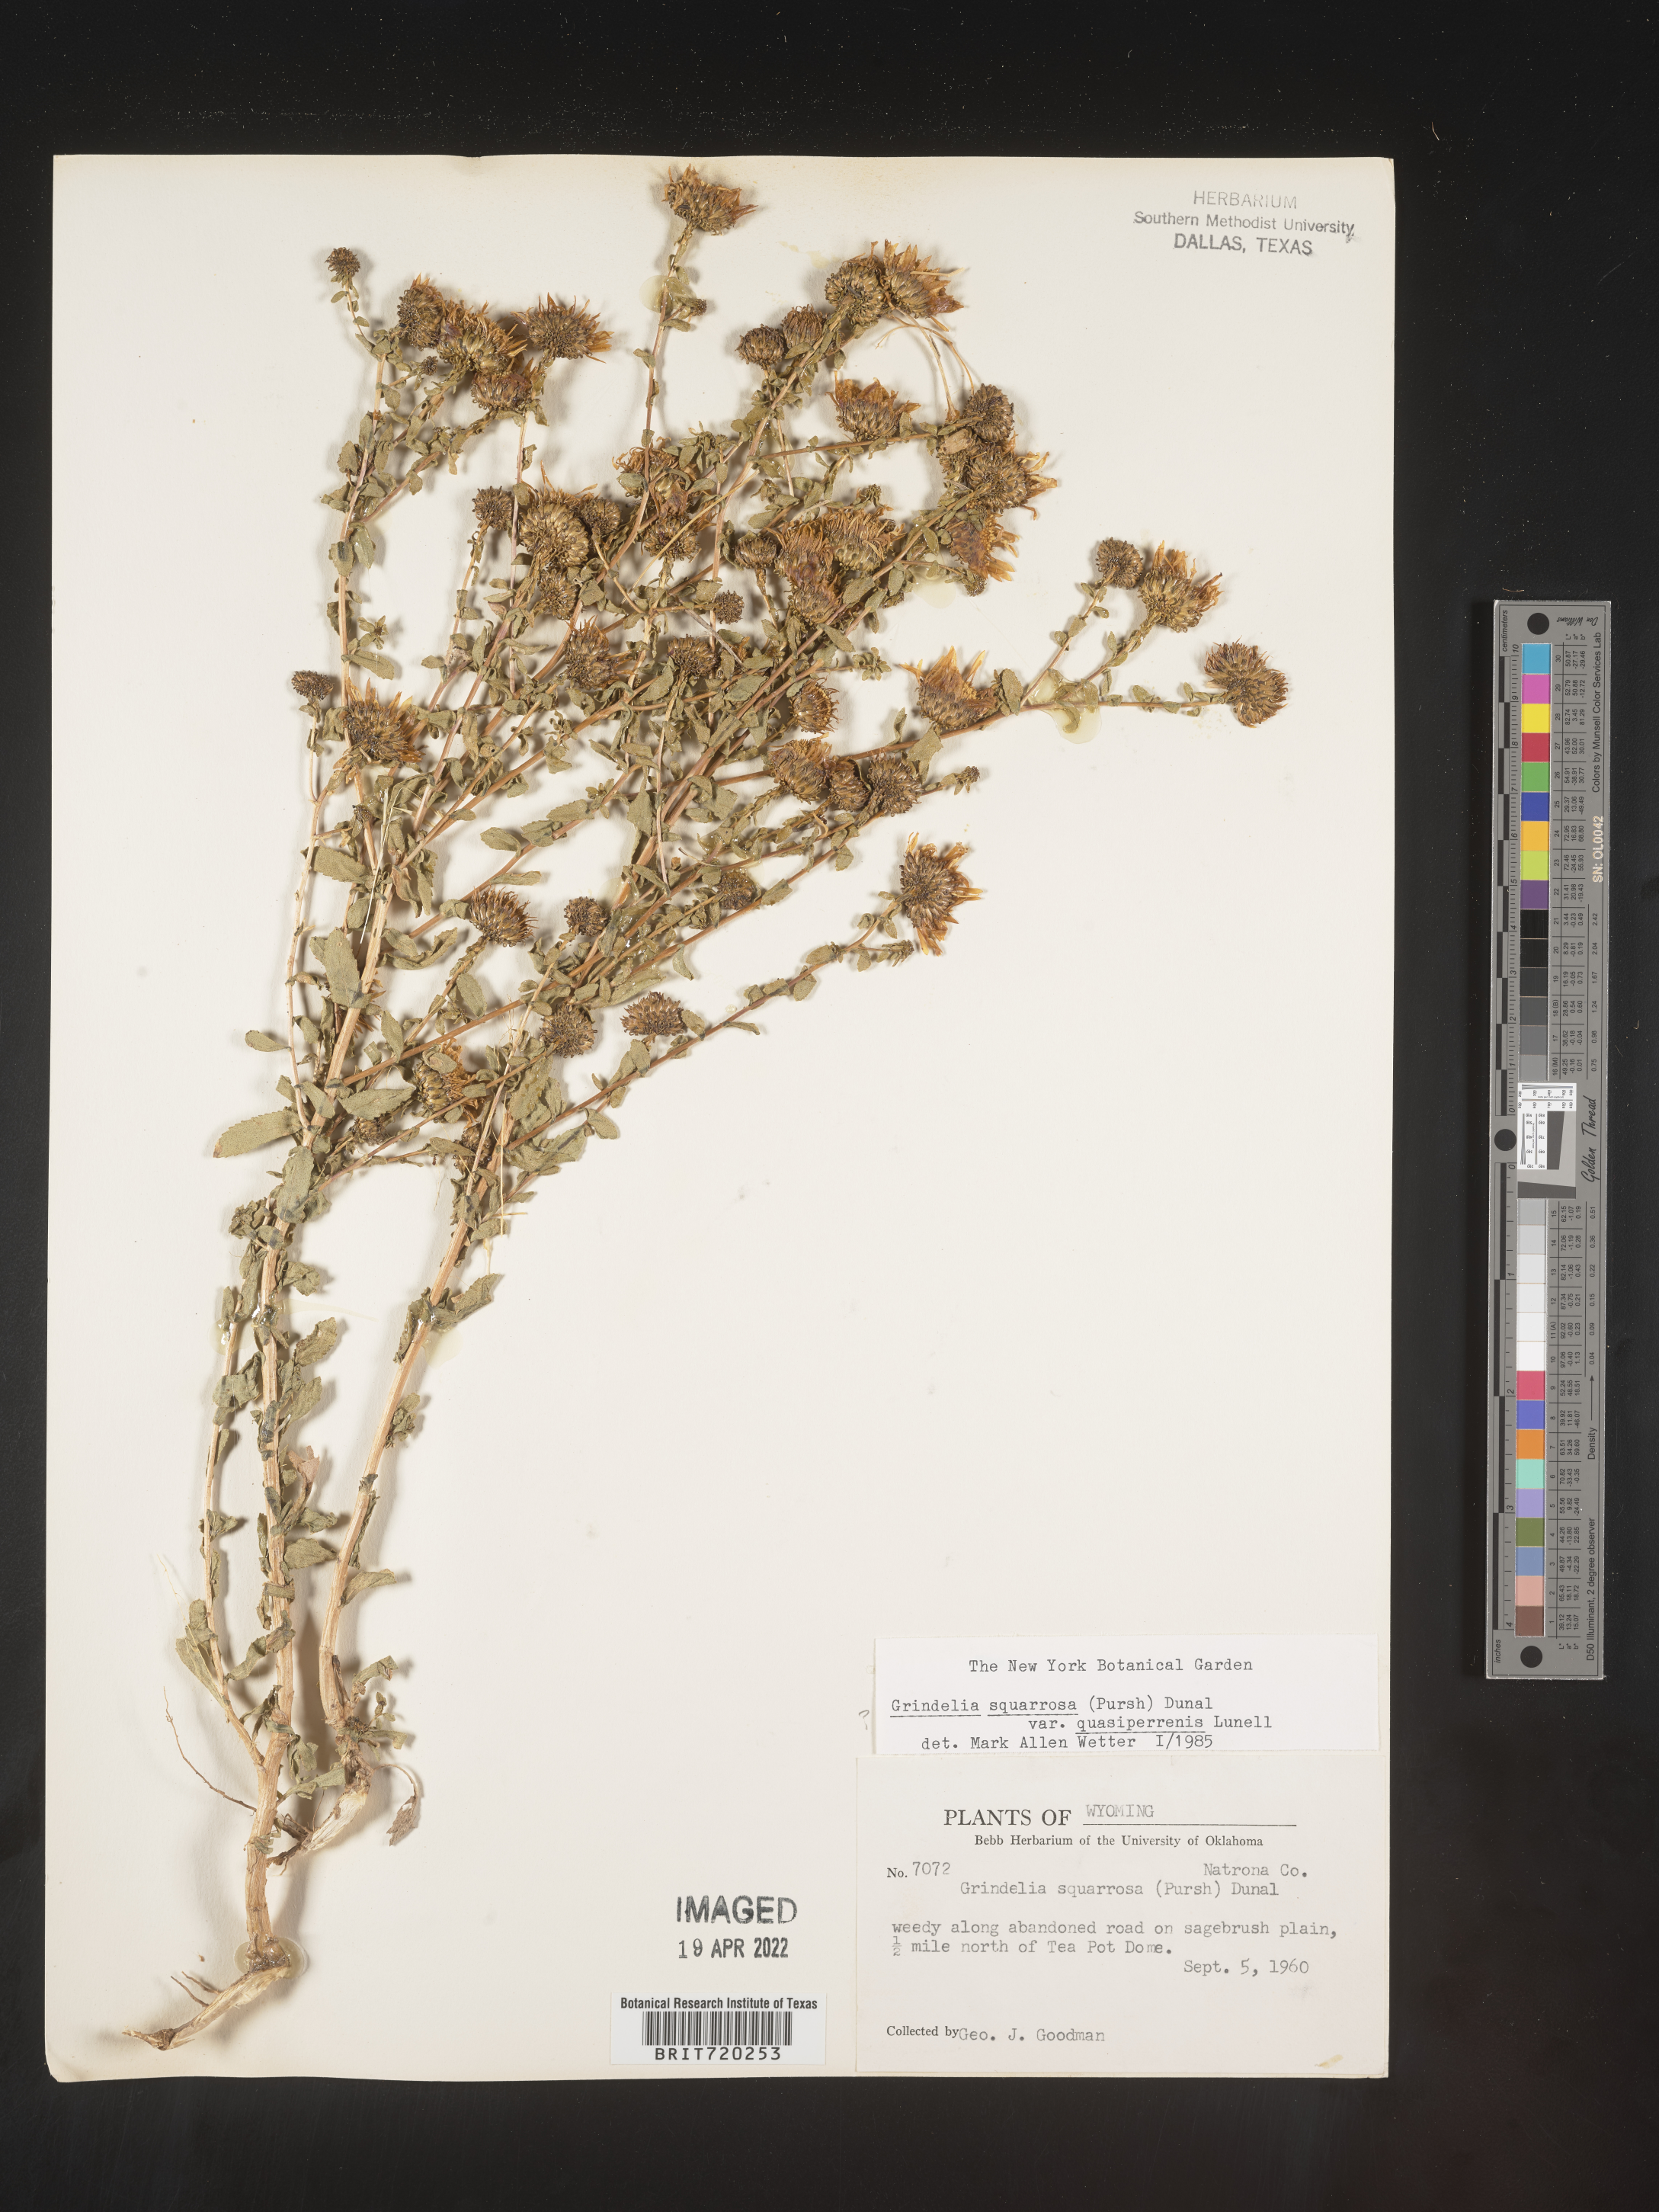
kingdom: Plantae
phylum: Tracheophyta
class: Magnoliopsida
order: Asterales
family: Asteraceae
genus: Grindelia
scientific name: Grindelia hirsutula
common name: Hairy gumweed
